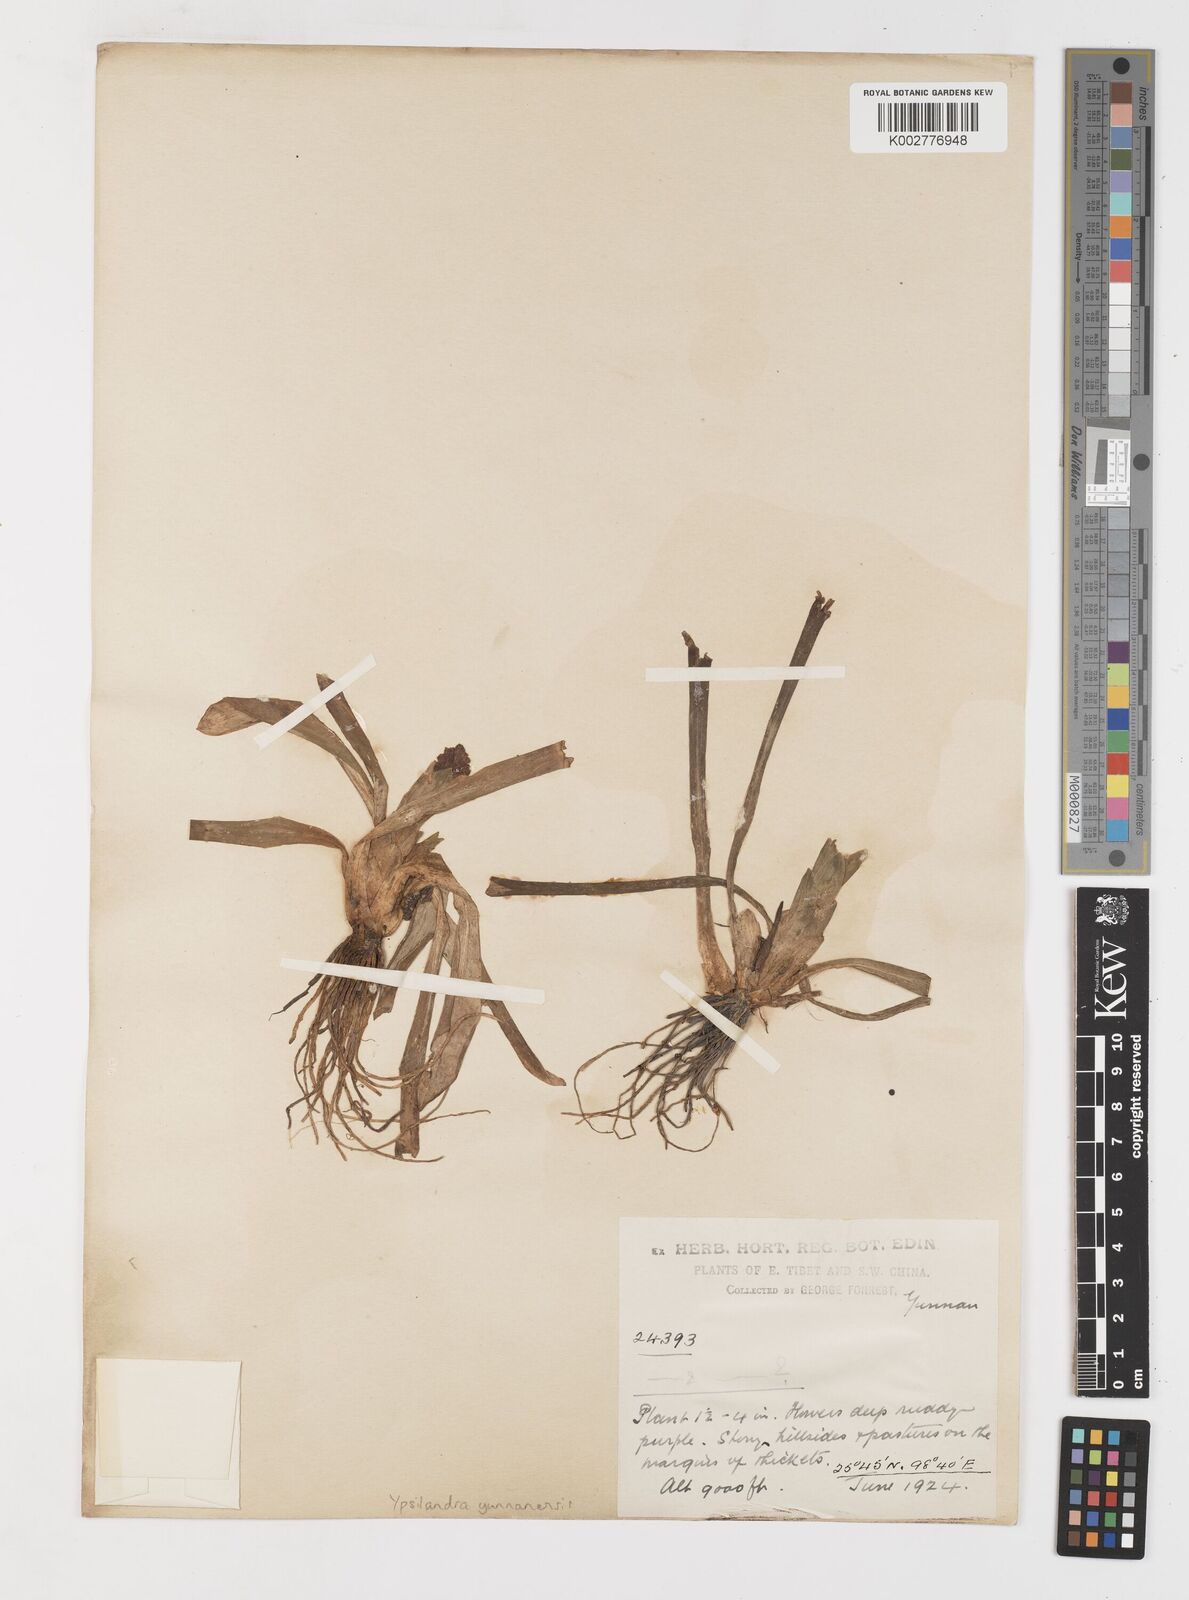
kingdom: Plantae
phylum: Tracheophyta
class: Liliopsida
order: Liliales
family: Melanthiaceae
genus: Helonias
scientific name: Helonias yunnanensis
